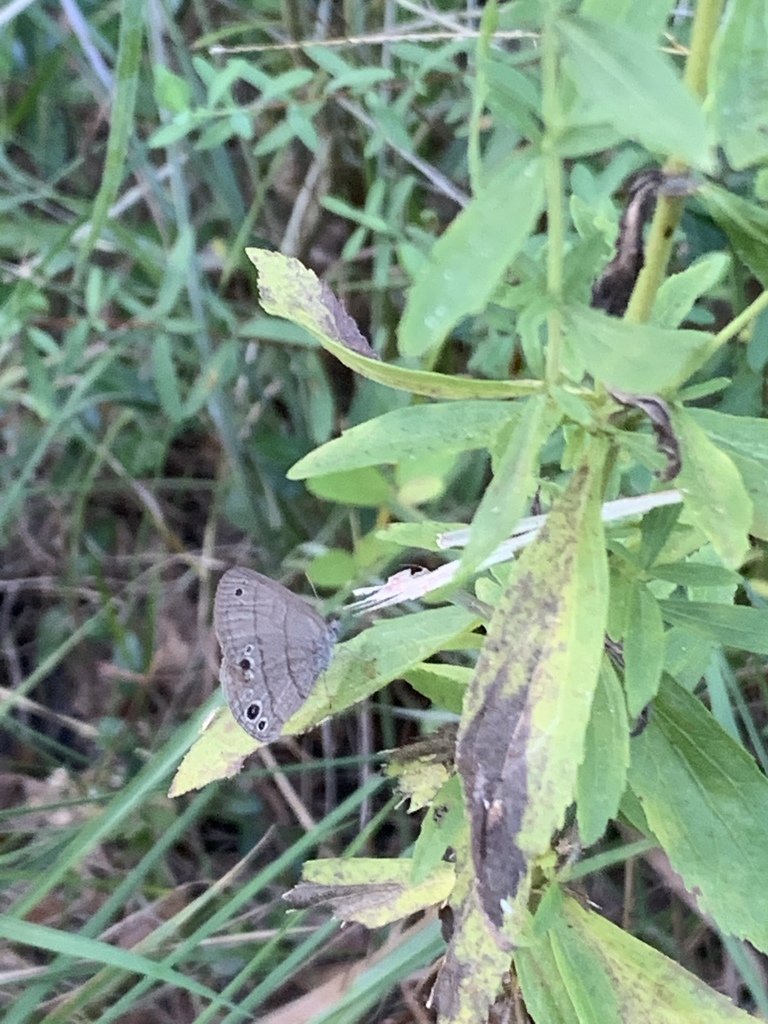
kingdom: Animalia
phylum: Arthropoda
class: Insecta
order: Lepidoptera
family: Nymphalidae
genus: Hermeuptychia
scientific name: Hermeuptychia
